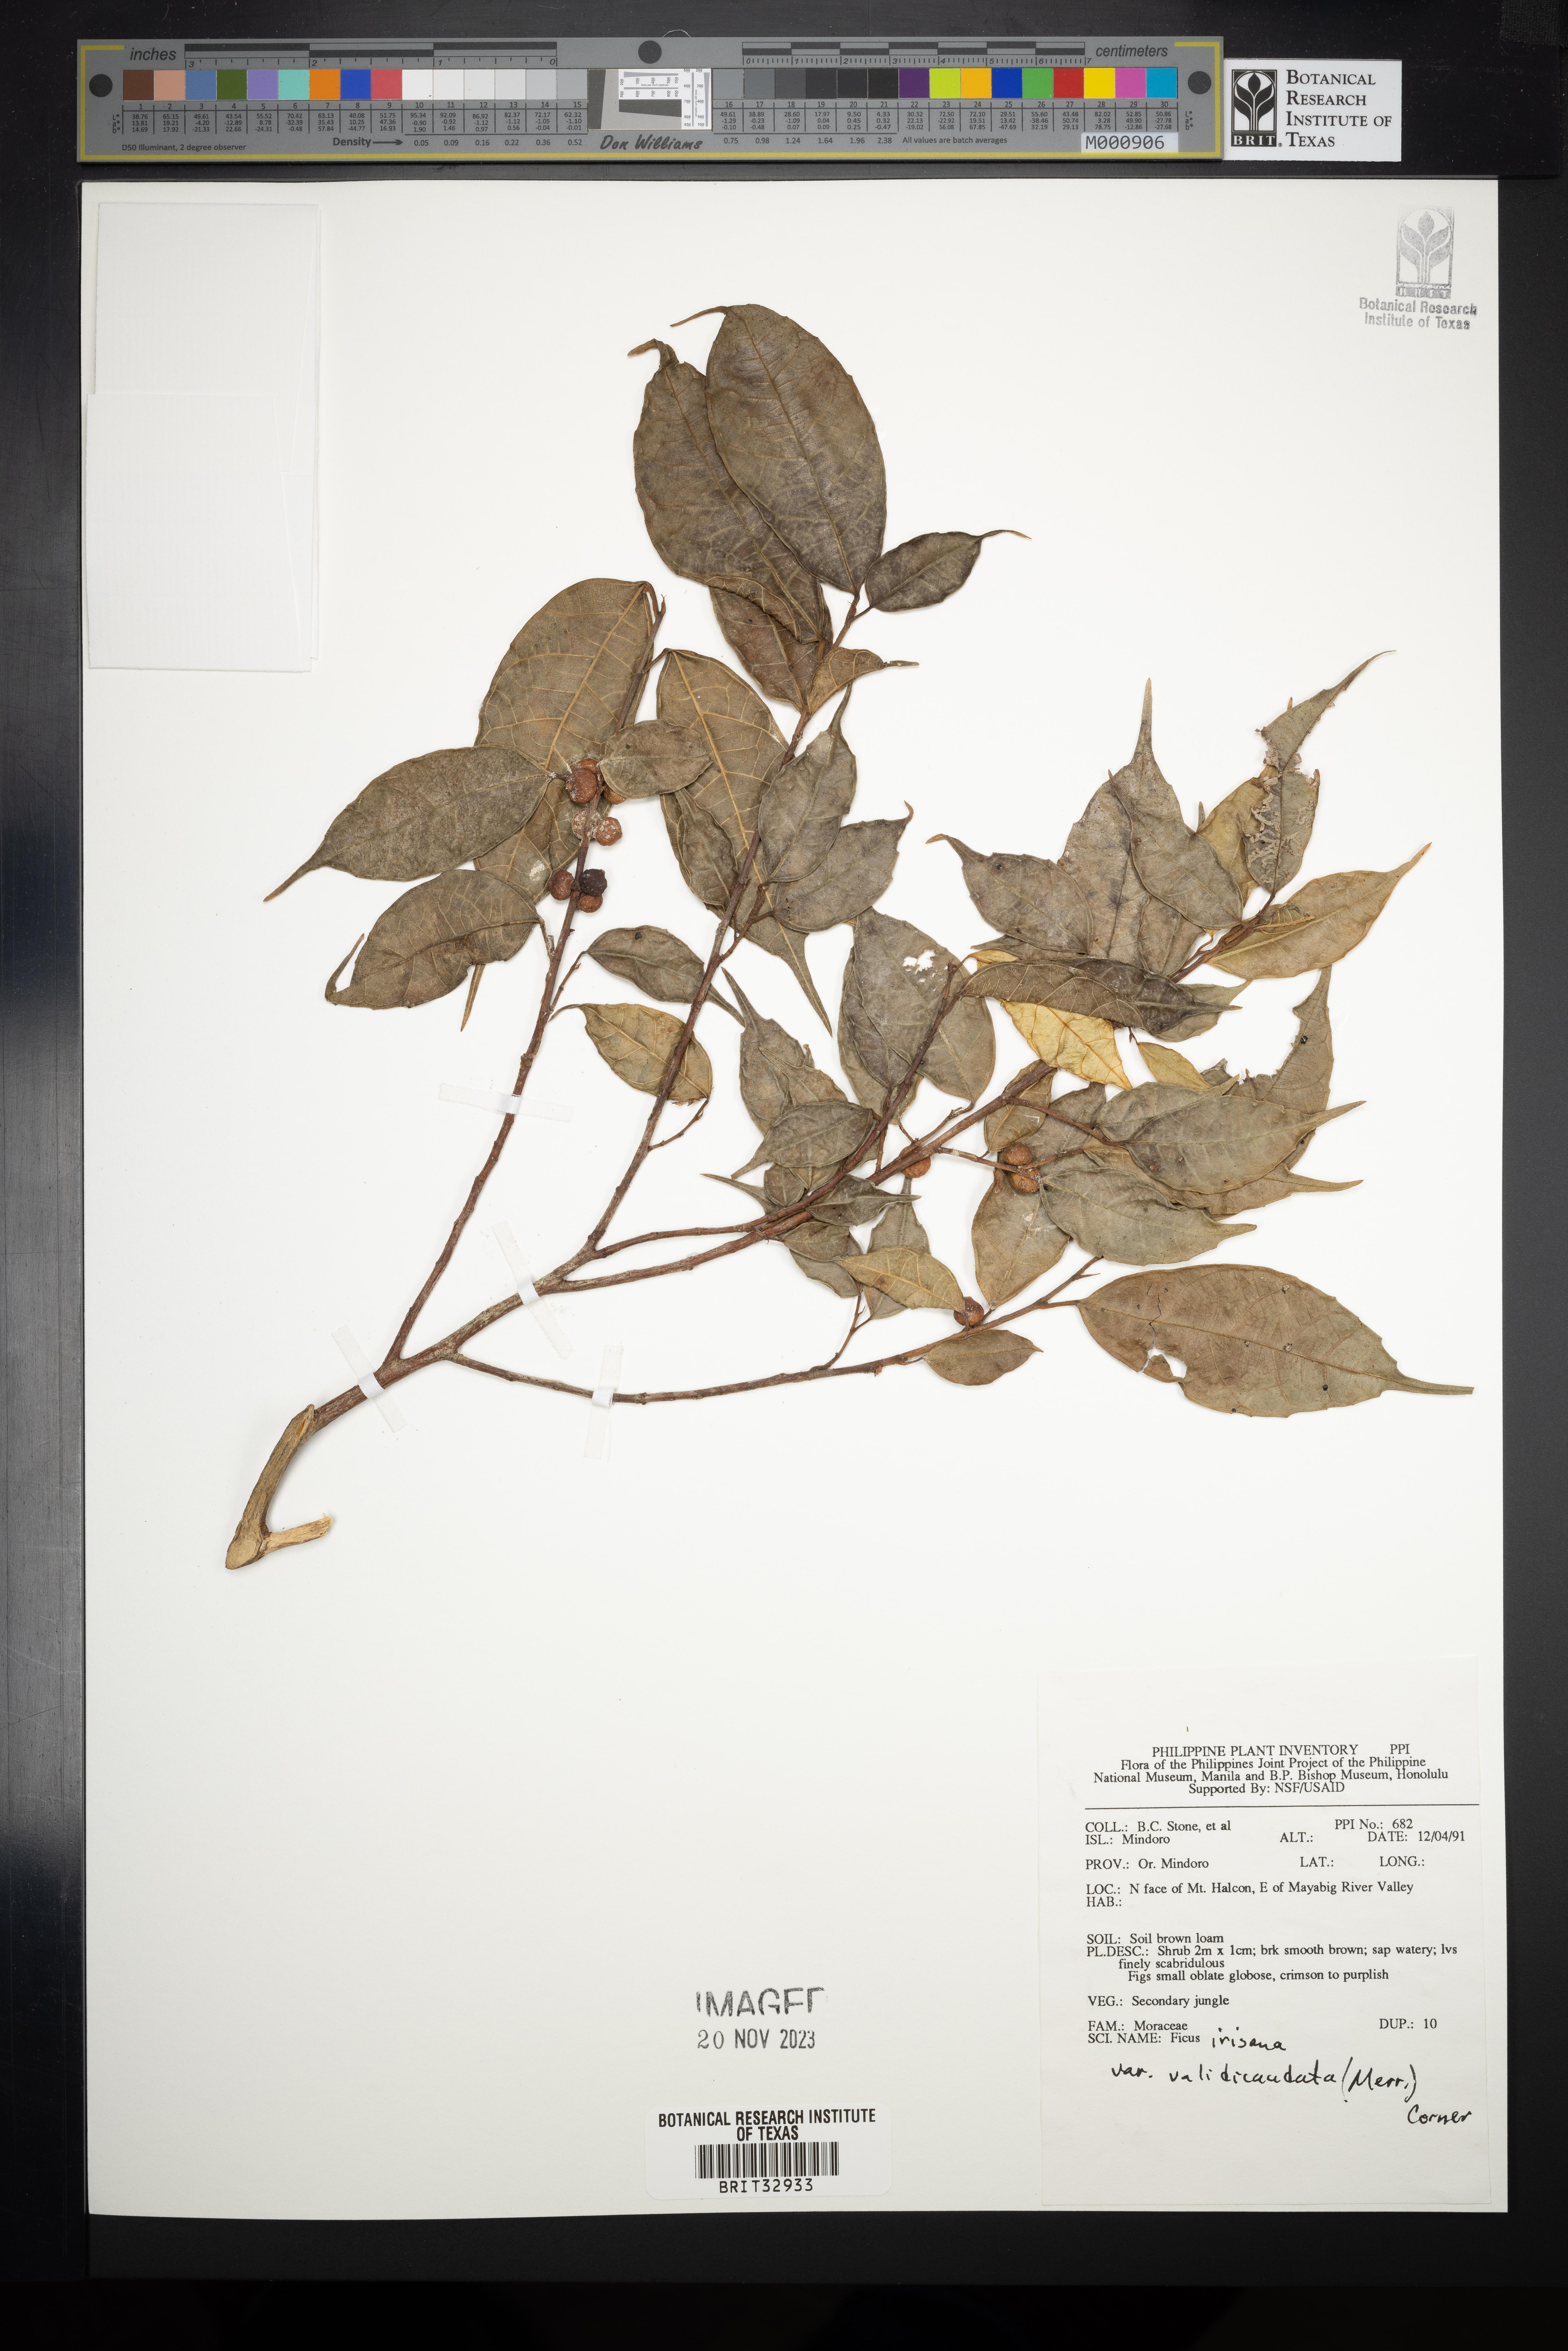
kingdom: Plantae
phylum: Tracheophyta
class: Magnoliopsida
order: Rosales
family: Moraceae
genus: Ficus
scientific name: Ficus ampelos
